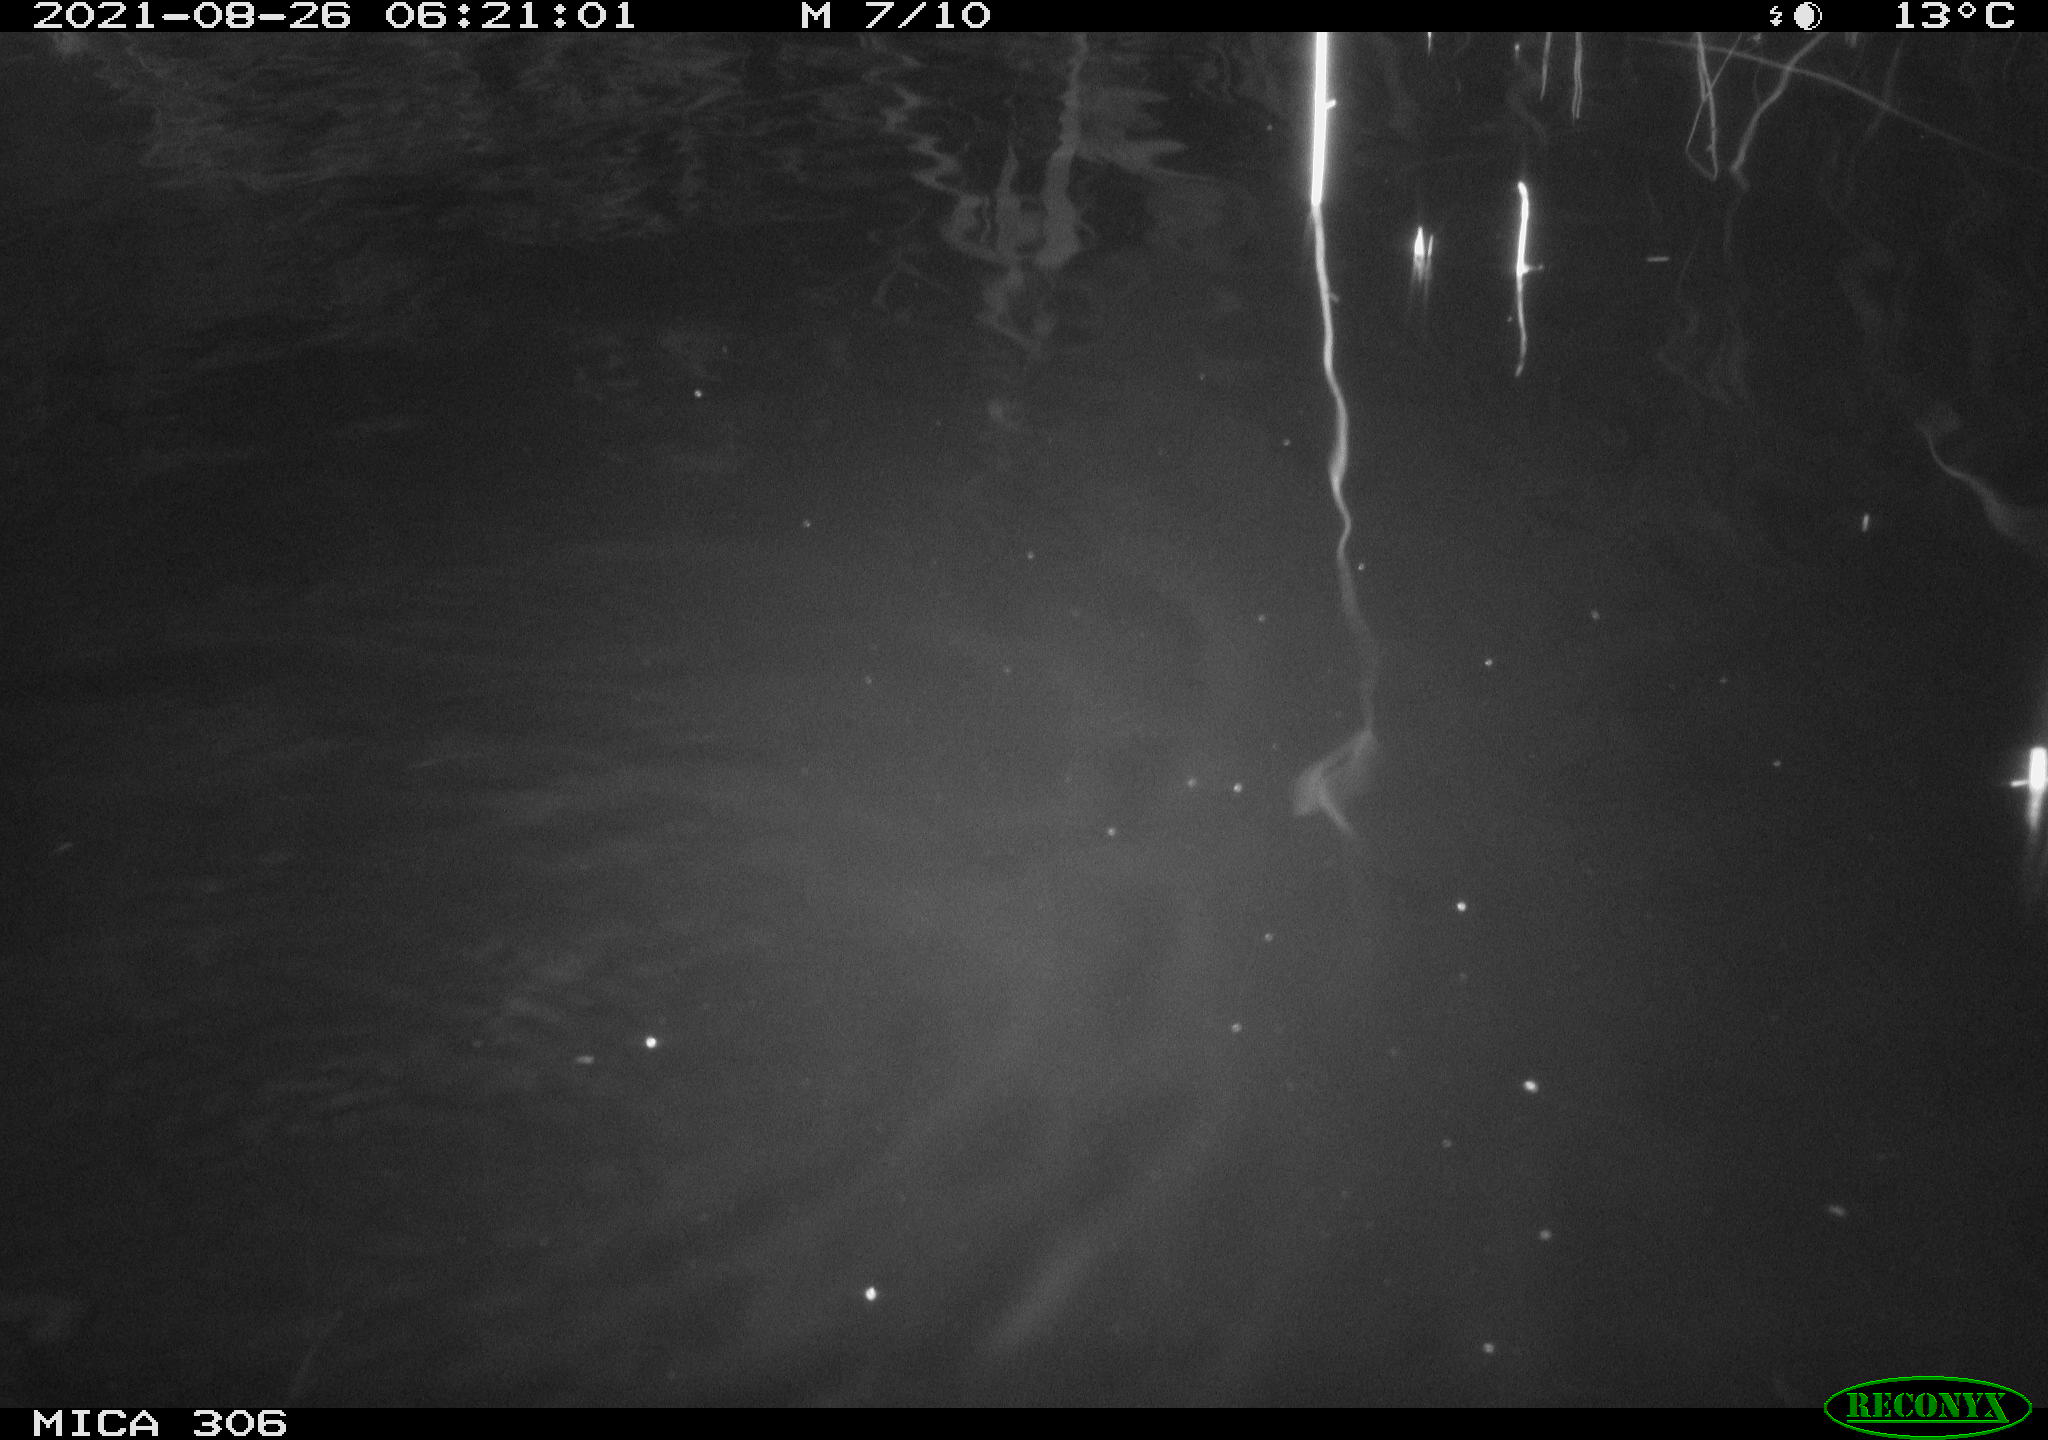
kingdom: Animalia
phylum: Chordata
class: Aves
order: Anseriformes
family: Anatidae
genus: Anas
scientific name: Anas platyrhynchos
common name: Mallard
